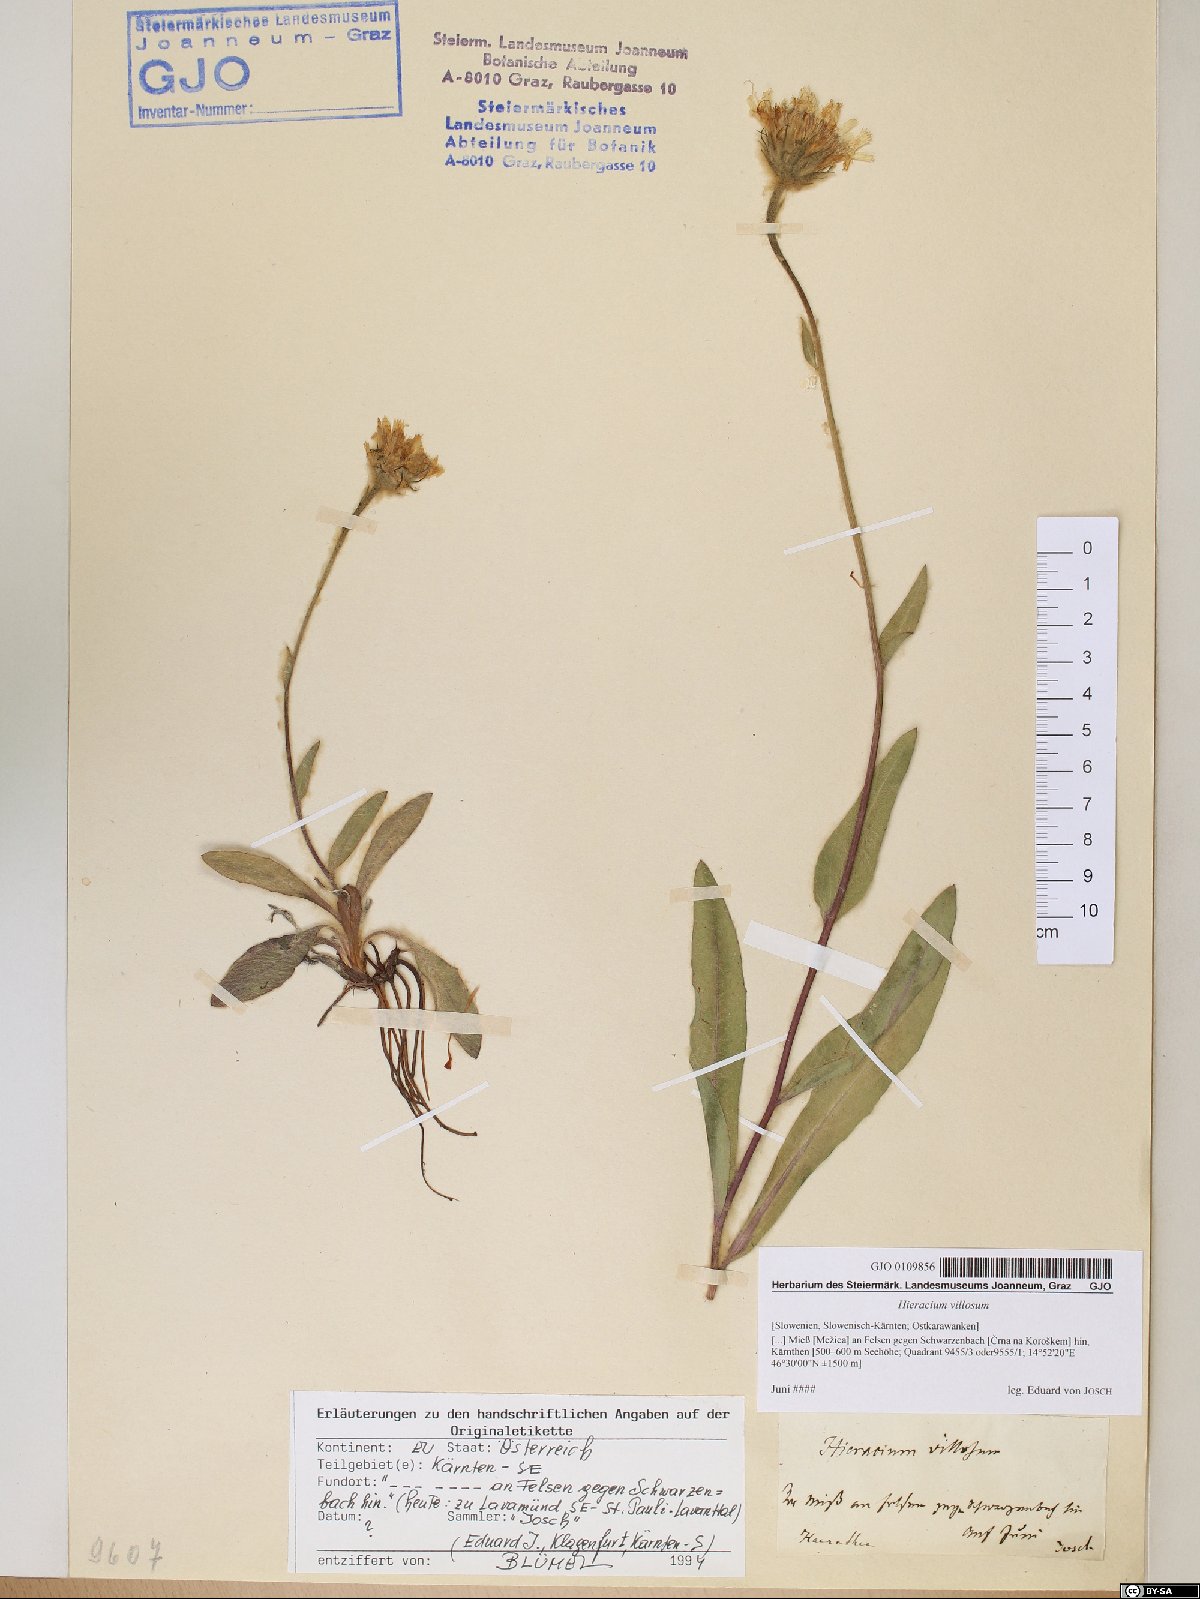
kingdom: Plantae
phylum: Tracheophyta
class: Magnoliopsida
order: Asterales
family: Asteraceae
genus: Hieracium
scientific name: Hieracium villosum
